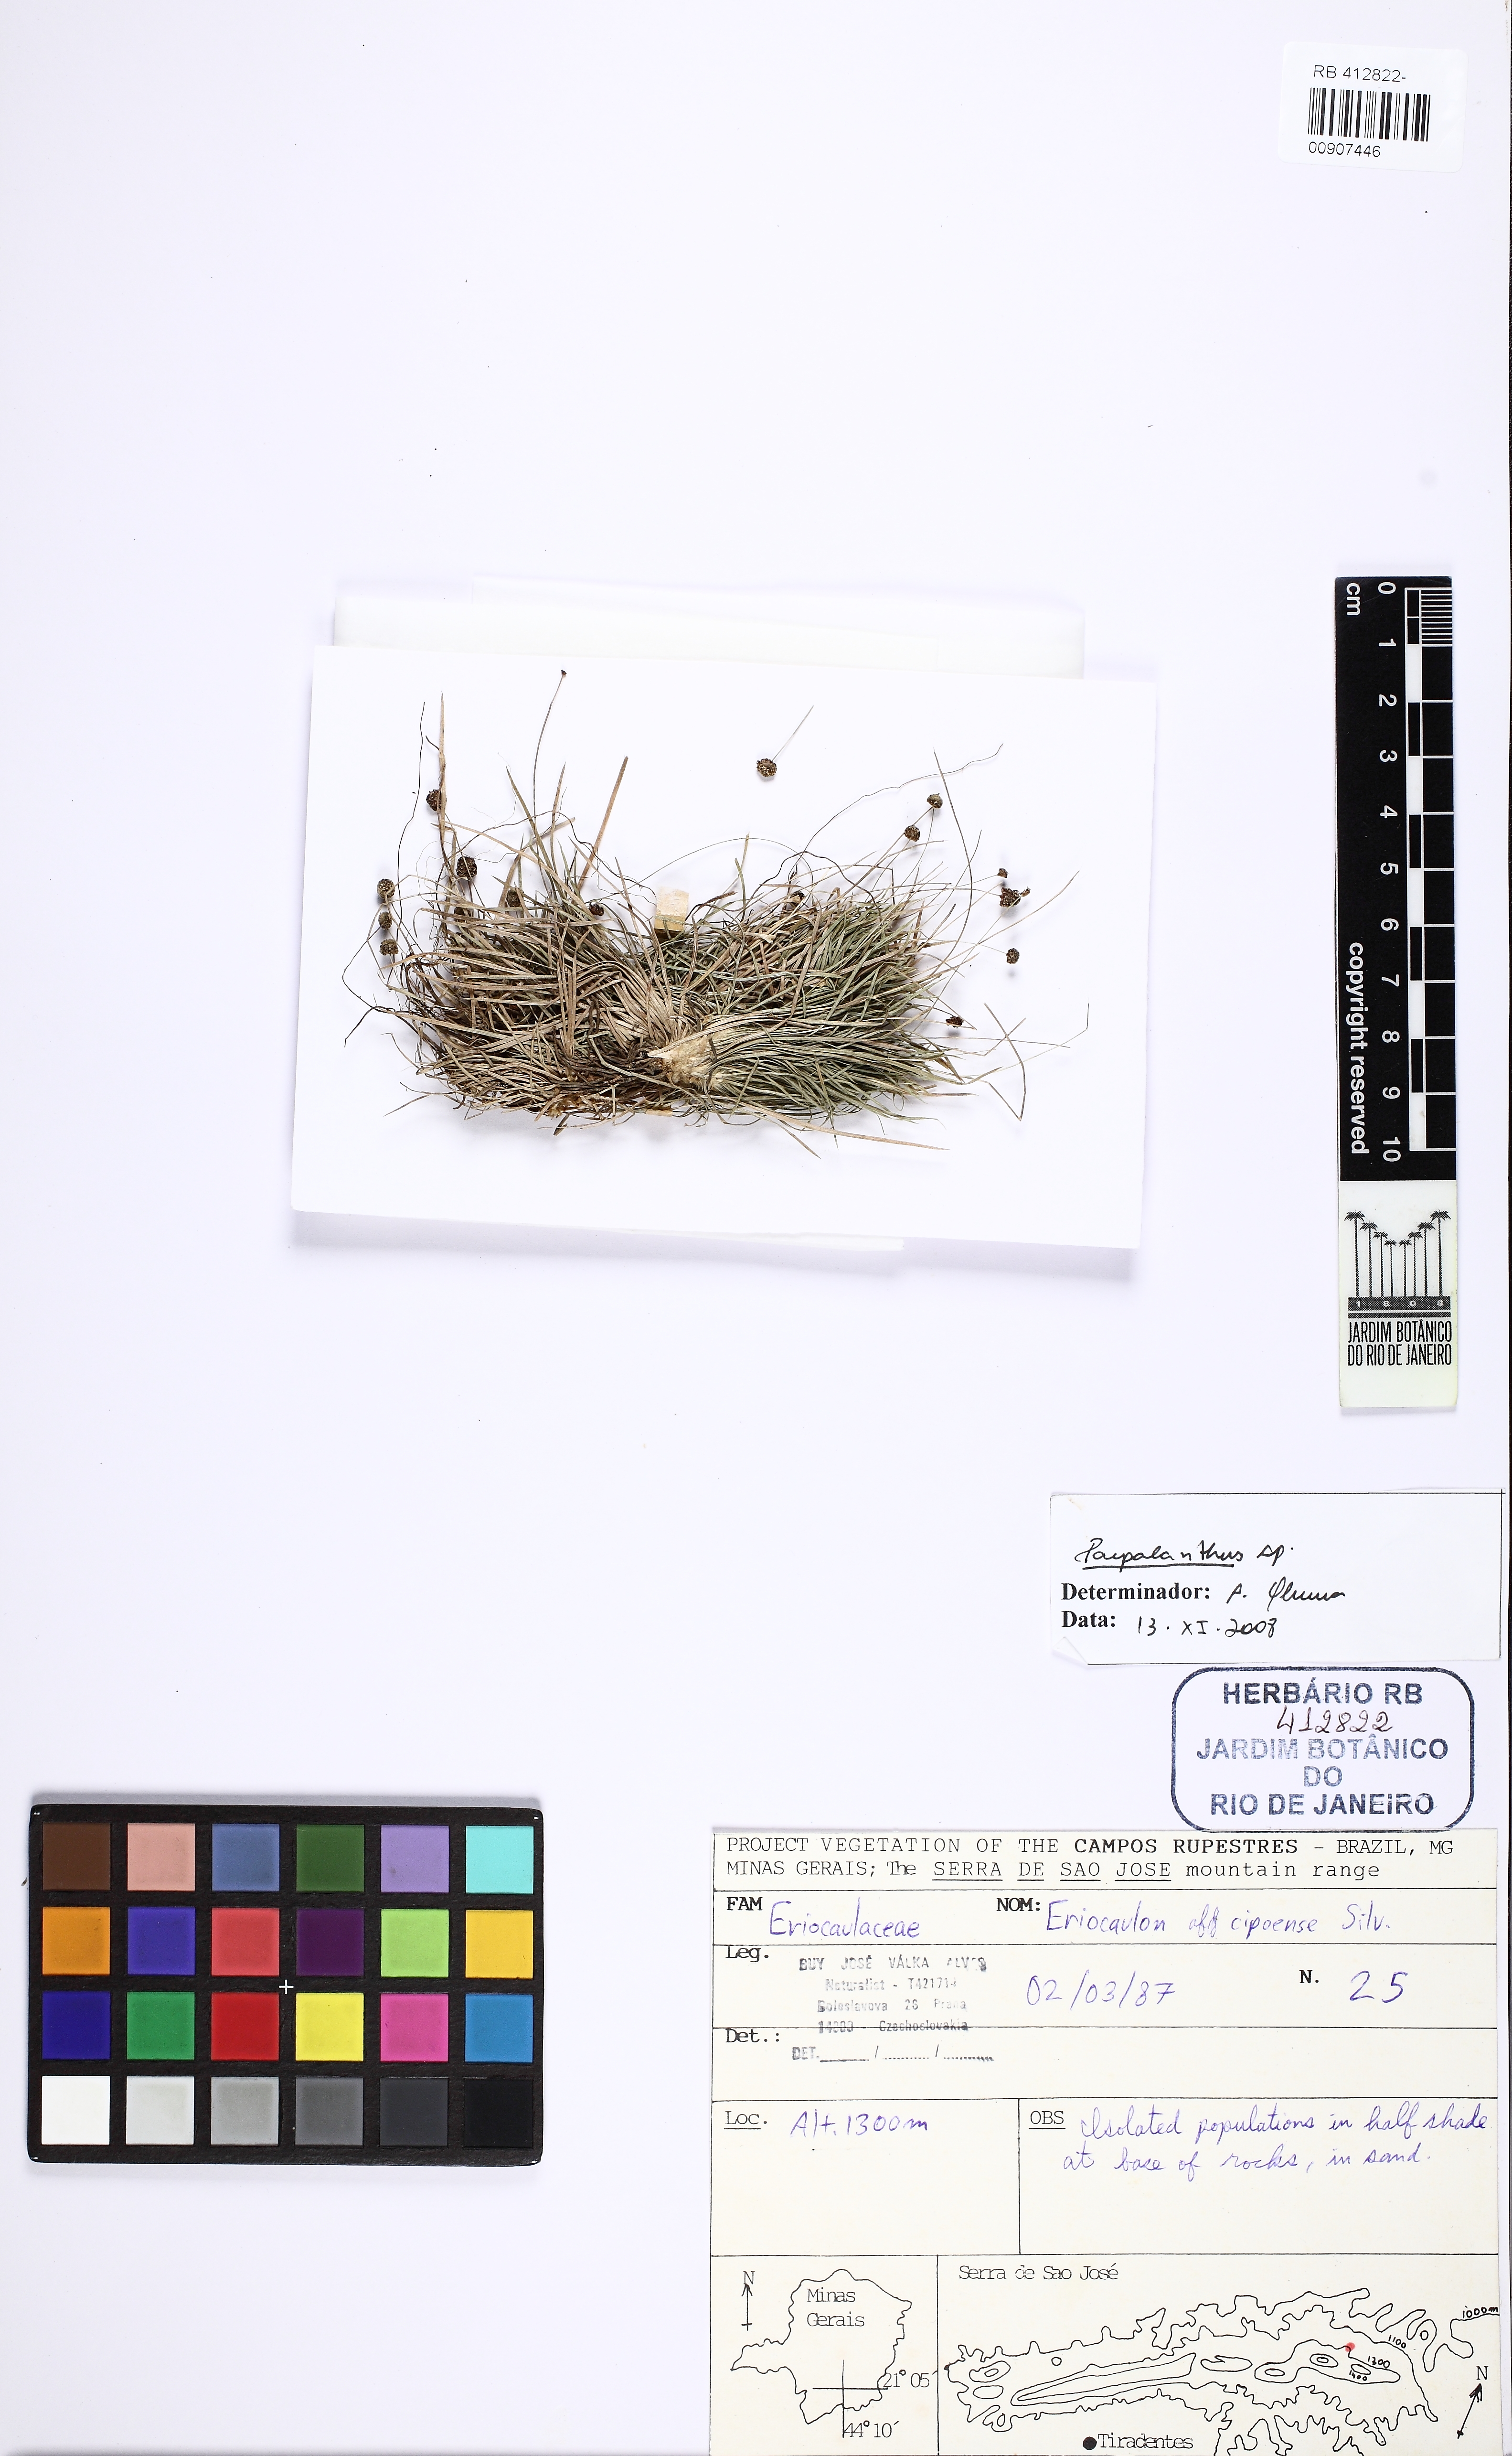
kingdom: Plantae
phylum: Tracheophyta
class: Liliopsida
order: Poales
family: Eriocaulaceae
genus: Paepalanthus
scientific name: Paepalanthus silveirae
